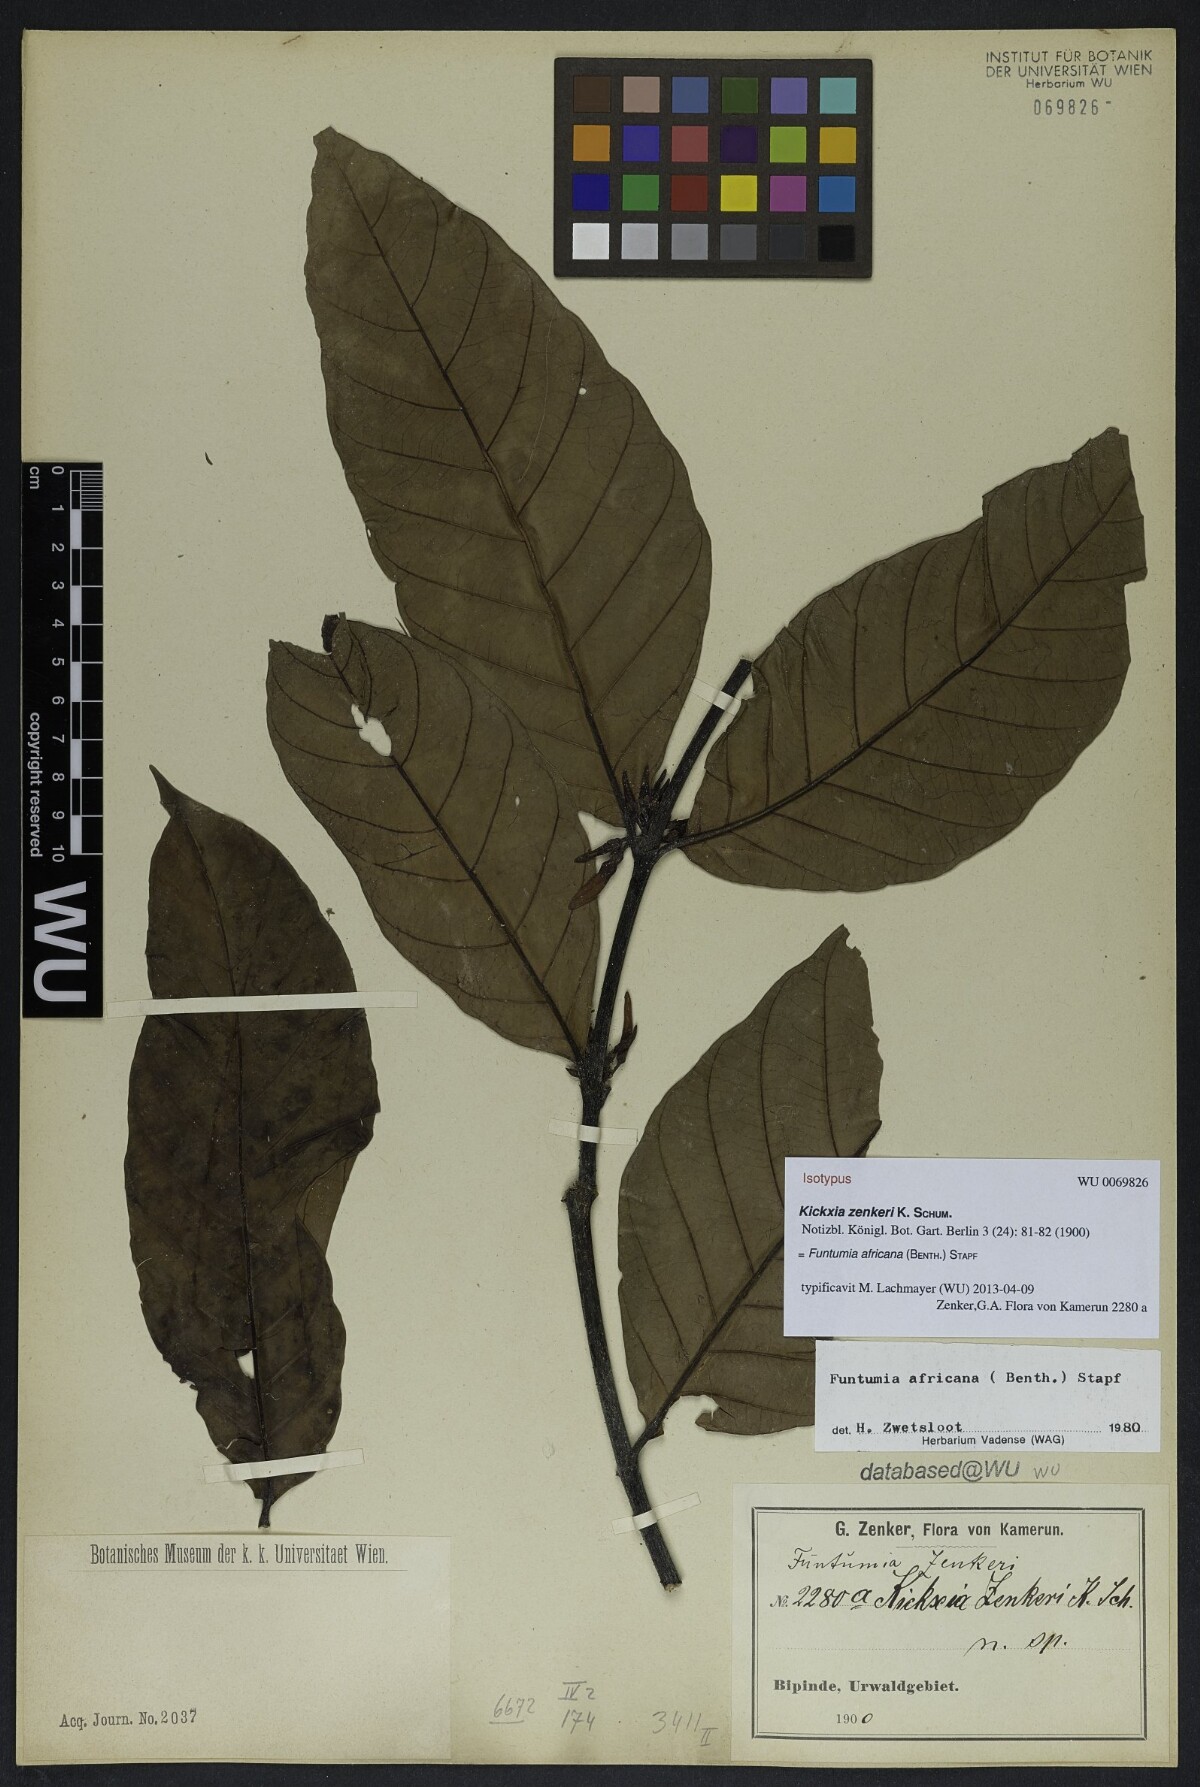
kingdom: Plantae
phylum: Tracheophyta
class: Magnoliopsida
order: Gentianales
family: Apocynaceae
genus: Funtumia
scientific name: Funtumia africana
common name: Lagos-rubber
